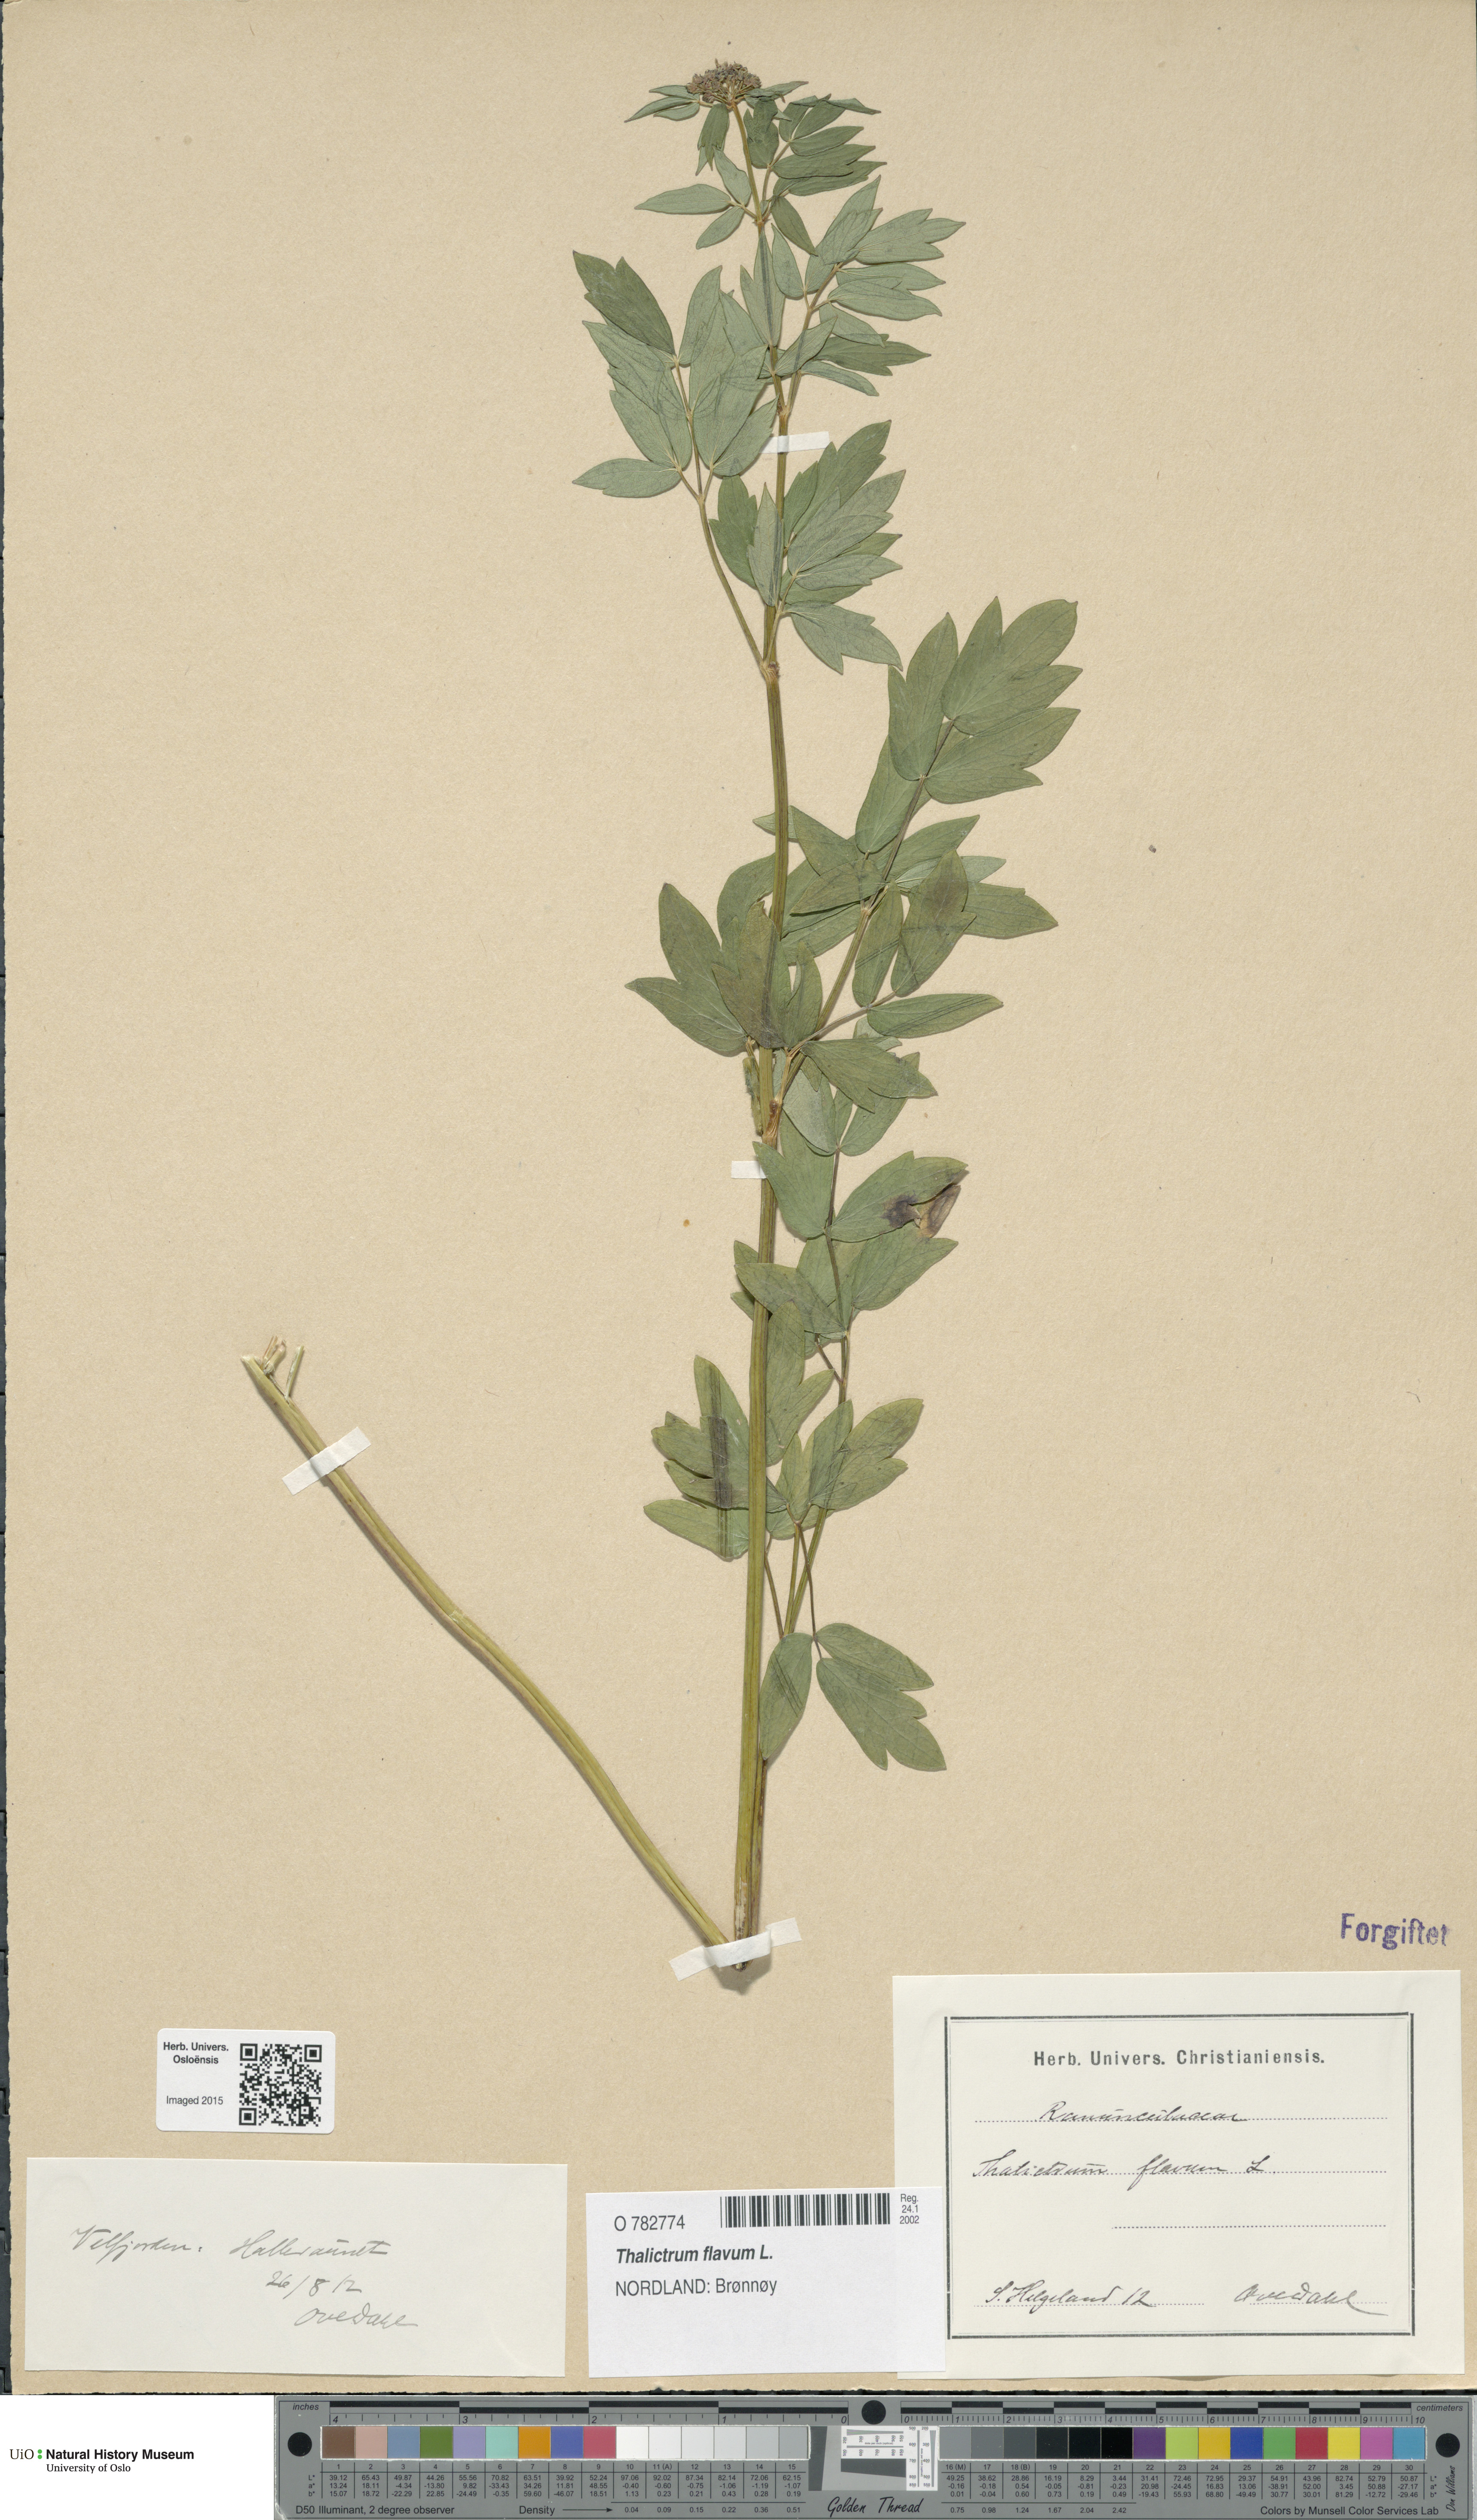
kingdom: Plantae
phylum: Tracheophyta
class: Magnoliopsida
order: Ranunculales
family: Ranunculaceae
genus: Thalictrum
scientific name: Thalictrum flavum
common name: Common meadow-rue
